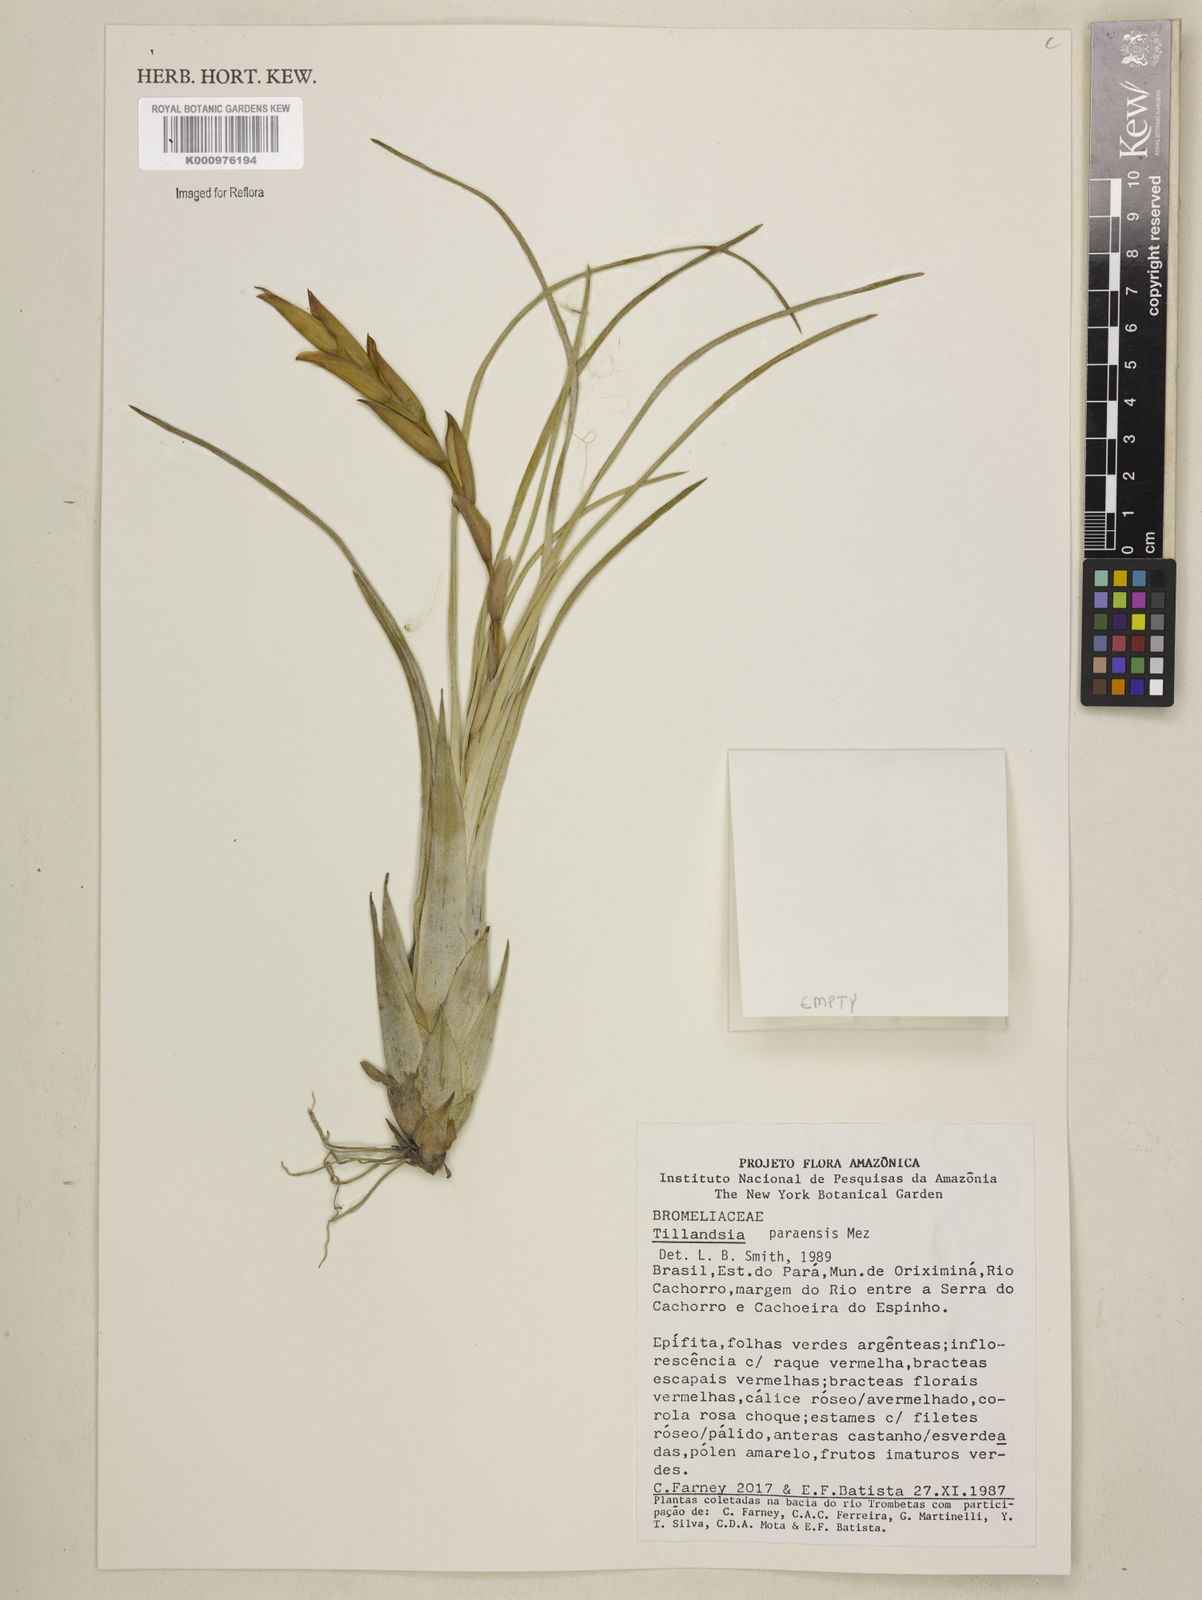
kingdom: Plantae
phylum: Tracheophyta
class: Liliopsida
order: Poales
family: Bromeliaceae
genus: Tillandsia
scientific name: Tillandsia paraensis
